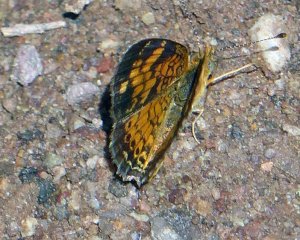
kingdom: Animalia
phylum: Arthropoda
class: Insecta
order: Lepidoptera
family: Nymphalidae
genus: Phyciodes
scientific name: Phyciodes tharos
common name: Pearl Crescent
